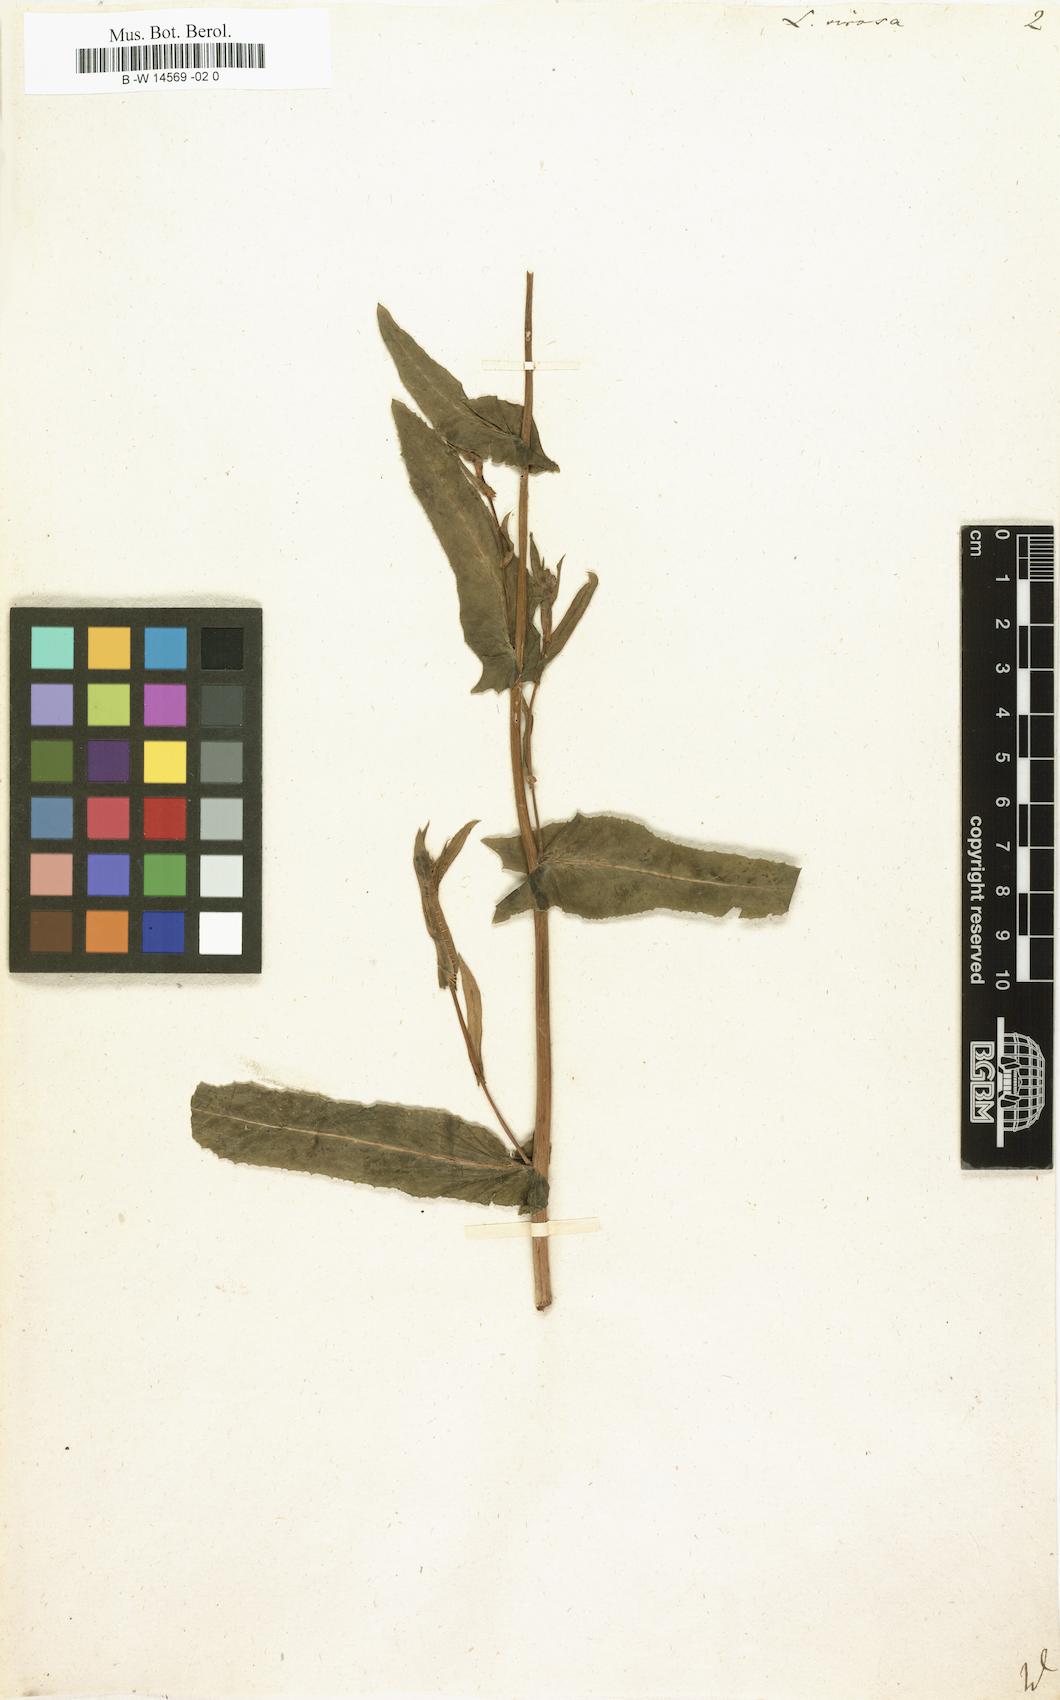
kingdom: Plantae
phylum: Tracheophyta
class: Magnoliopsida
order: Asterales
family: Asteraceae
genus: Lactuca
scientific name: Lactuca virosa
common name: Great lettuce
